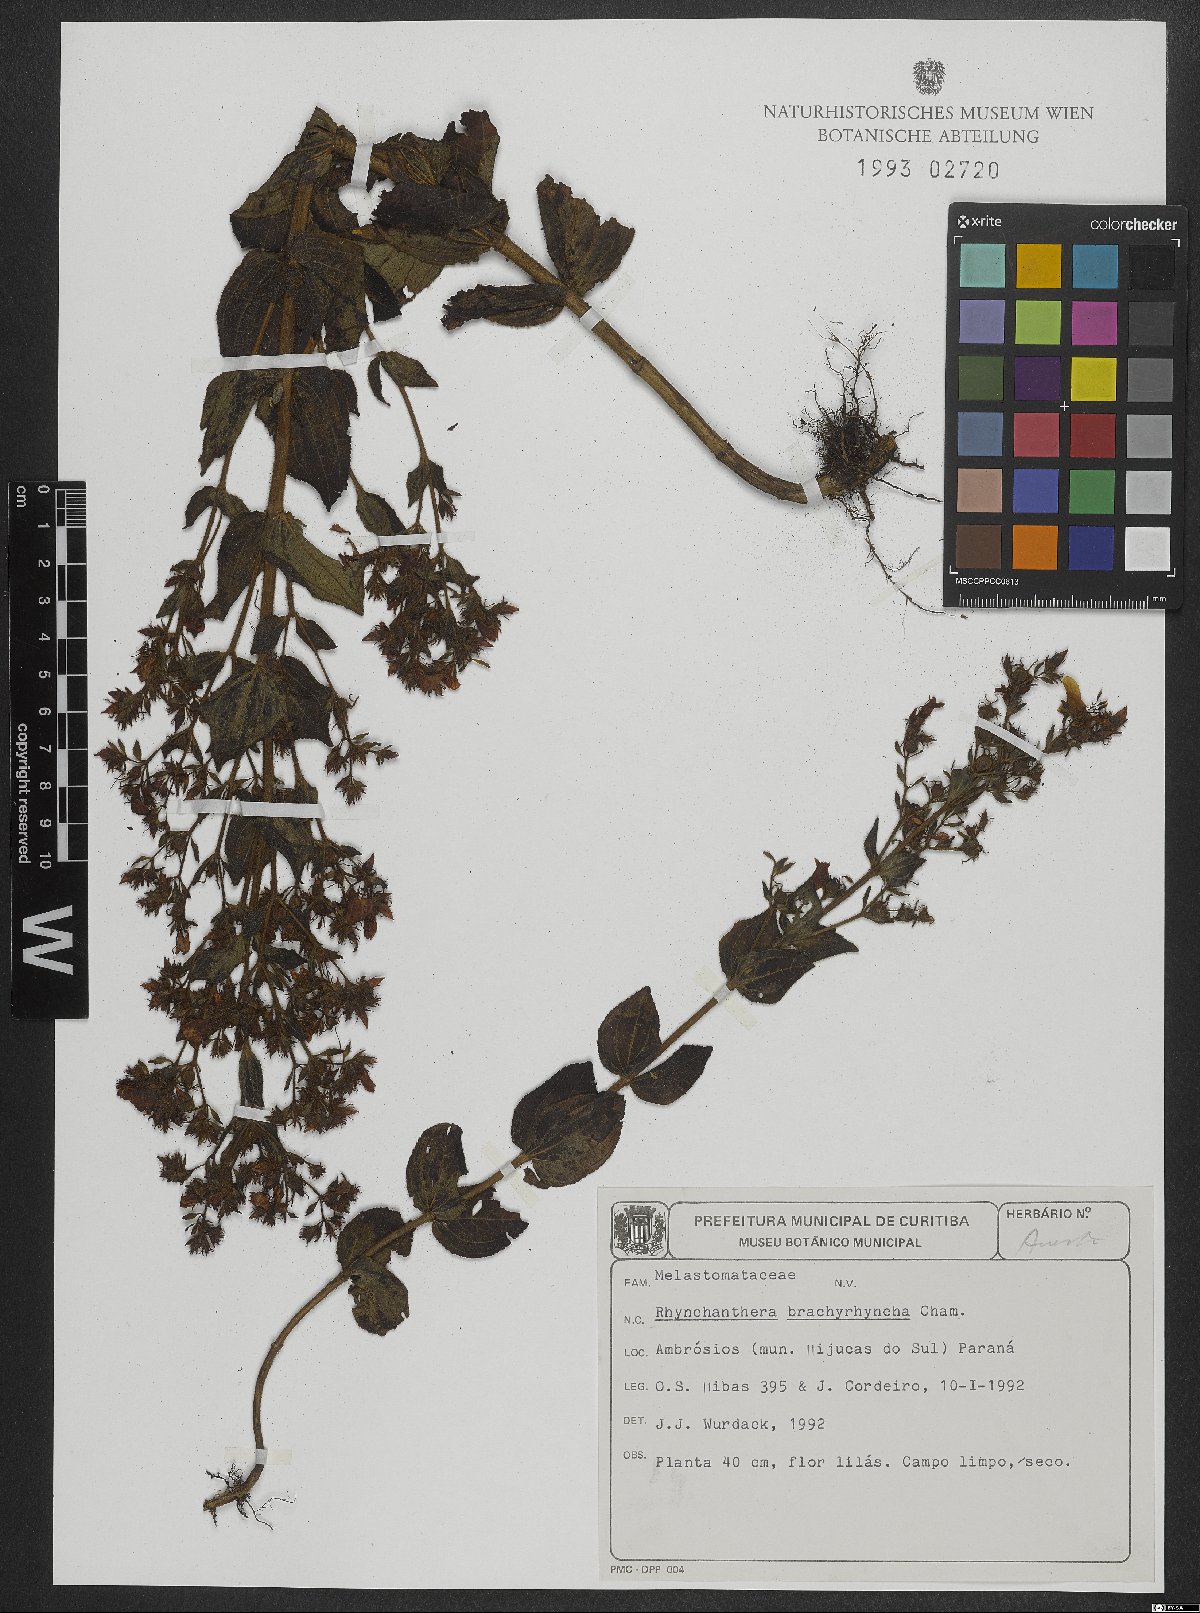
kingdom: Plantae
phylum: Tracheophyta
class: Magnoliopsida
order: Myrtales
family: Melastomataceae
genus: Rhynchanthera
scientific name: Rhynchanthera brachyrhyncha
